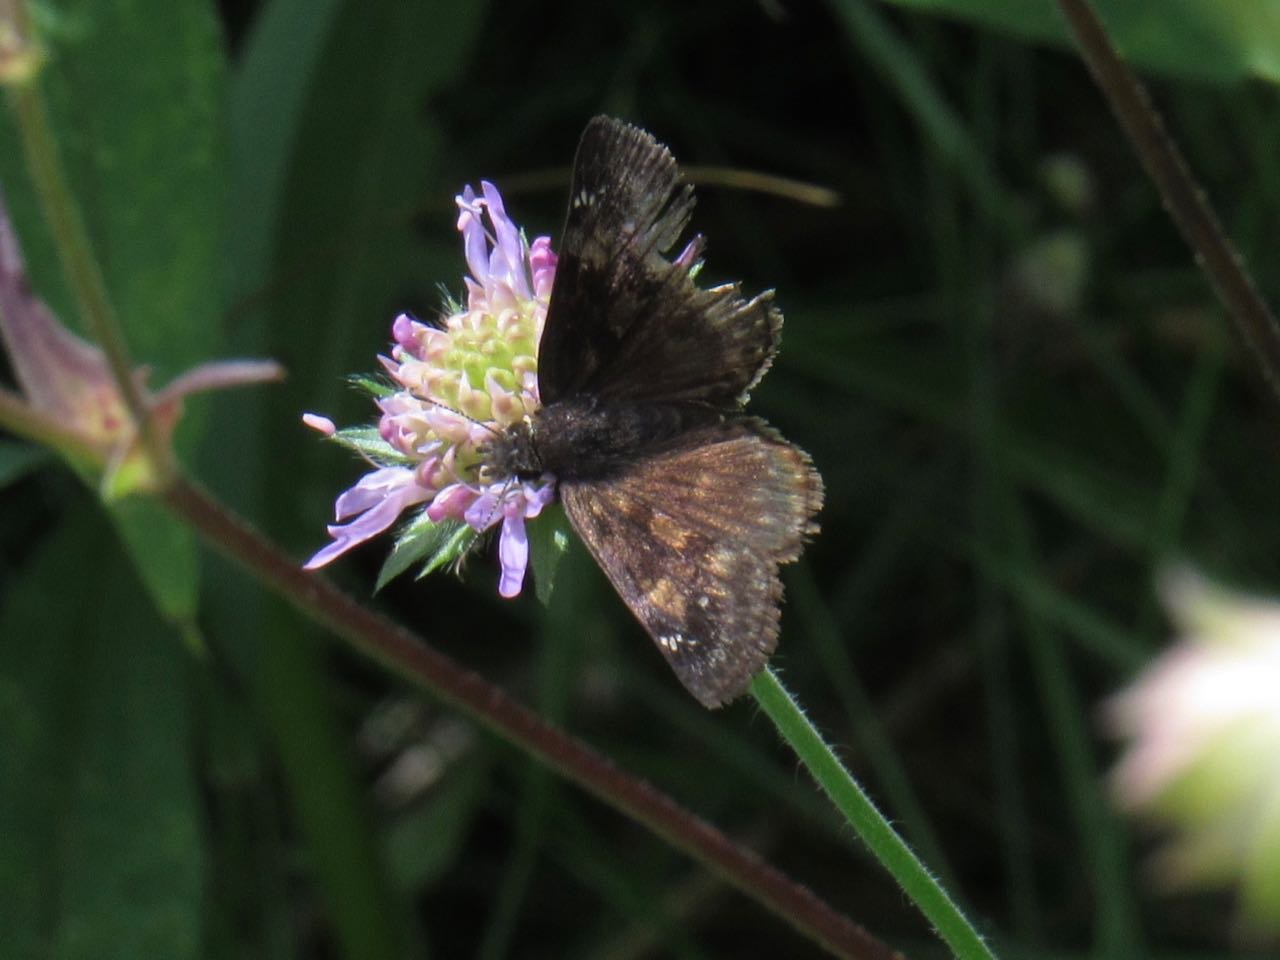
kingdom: Animalia
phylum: Arthropoda
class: Insecta
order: Lepidoptera
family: Hesperiidae
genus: Gesta
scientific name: Gesta
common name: Wild Indigo Duskywing
